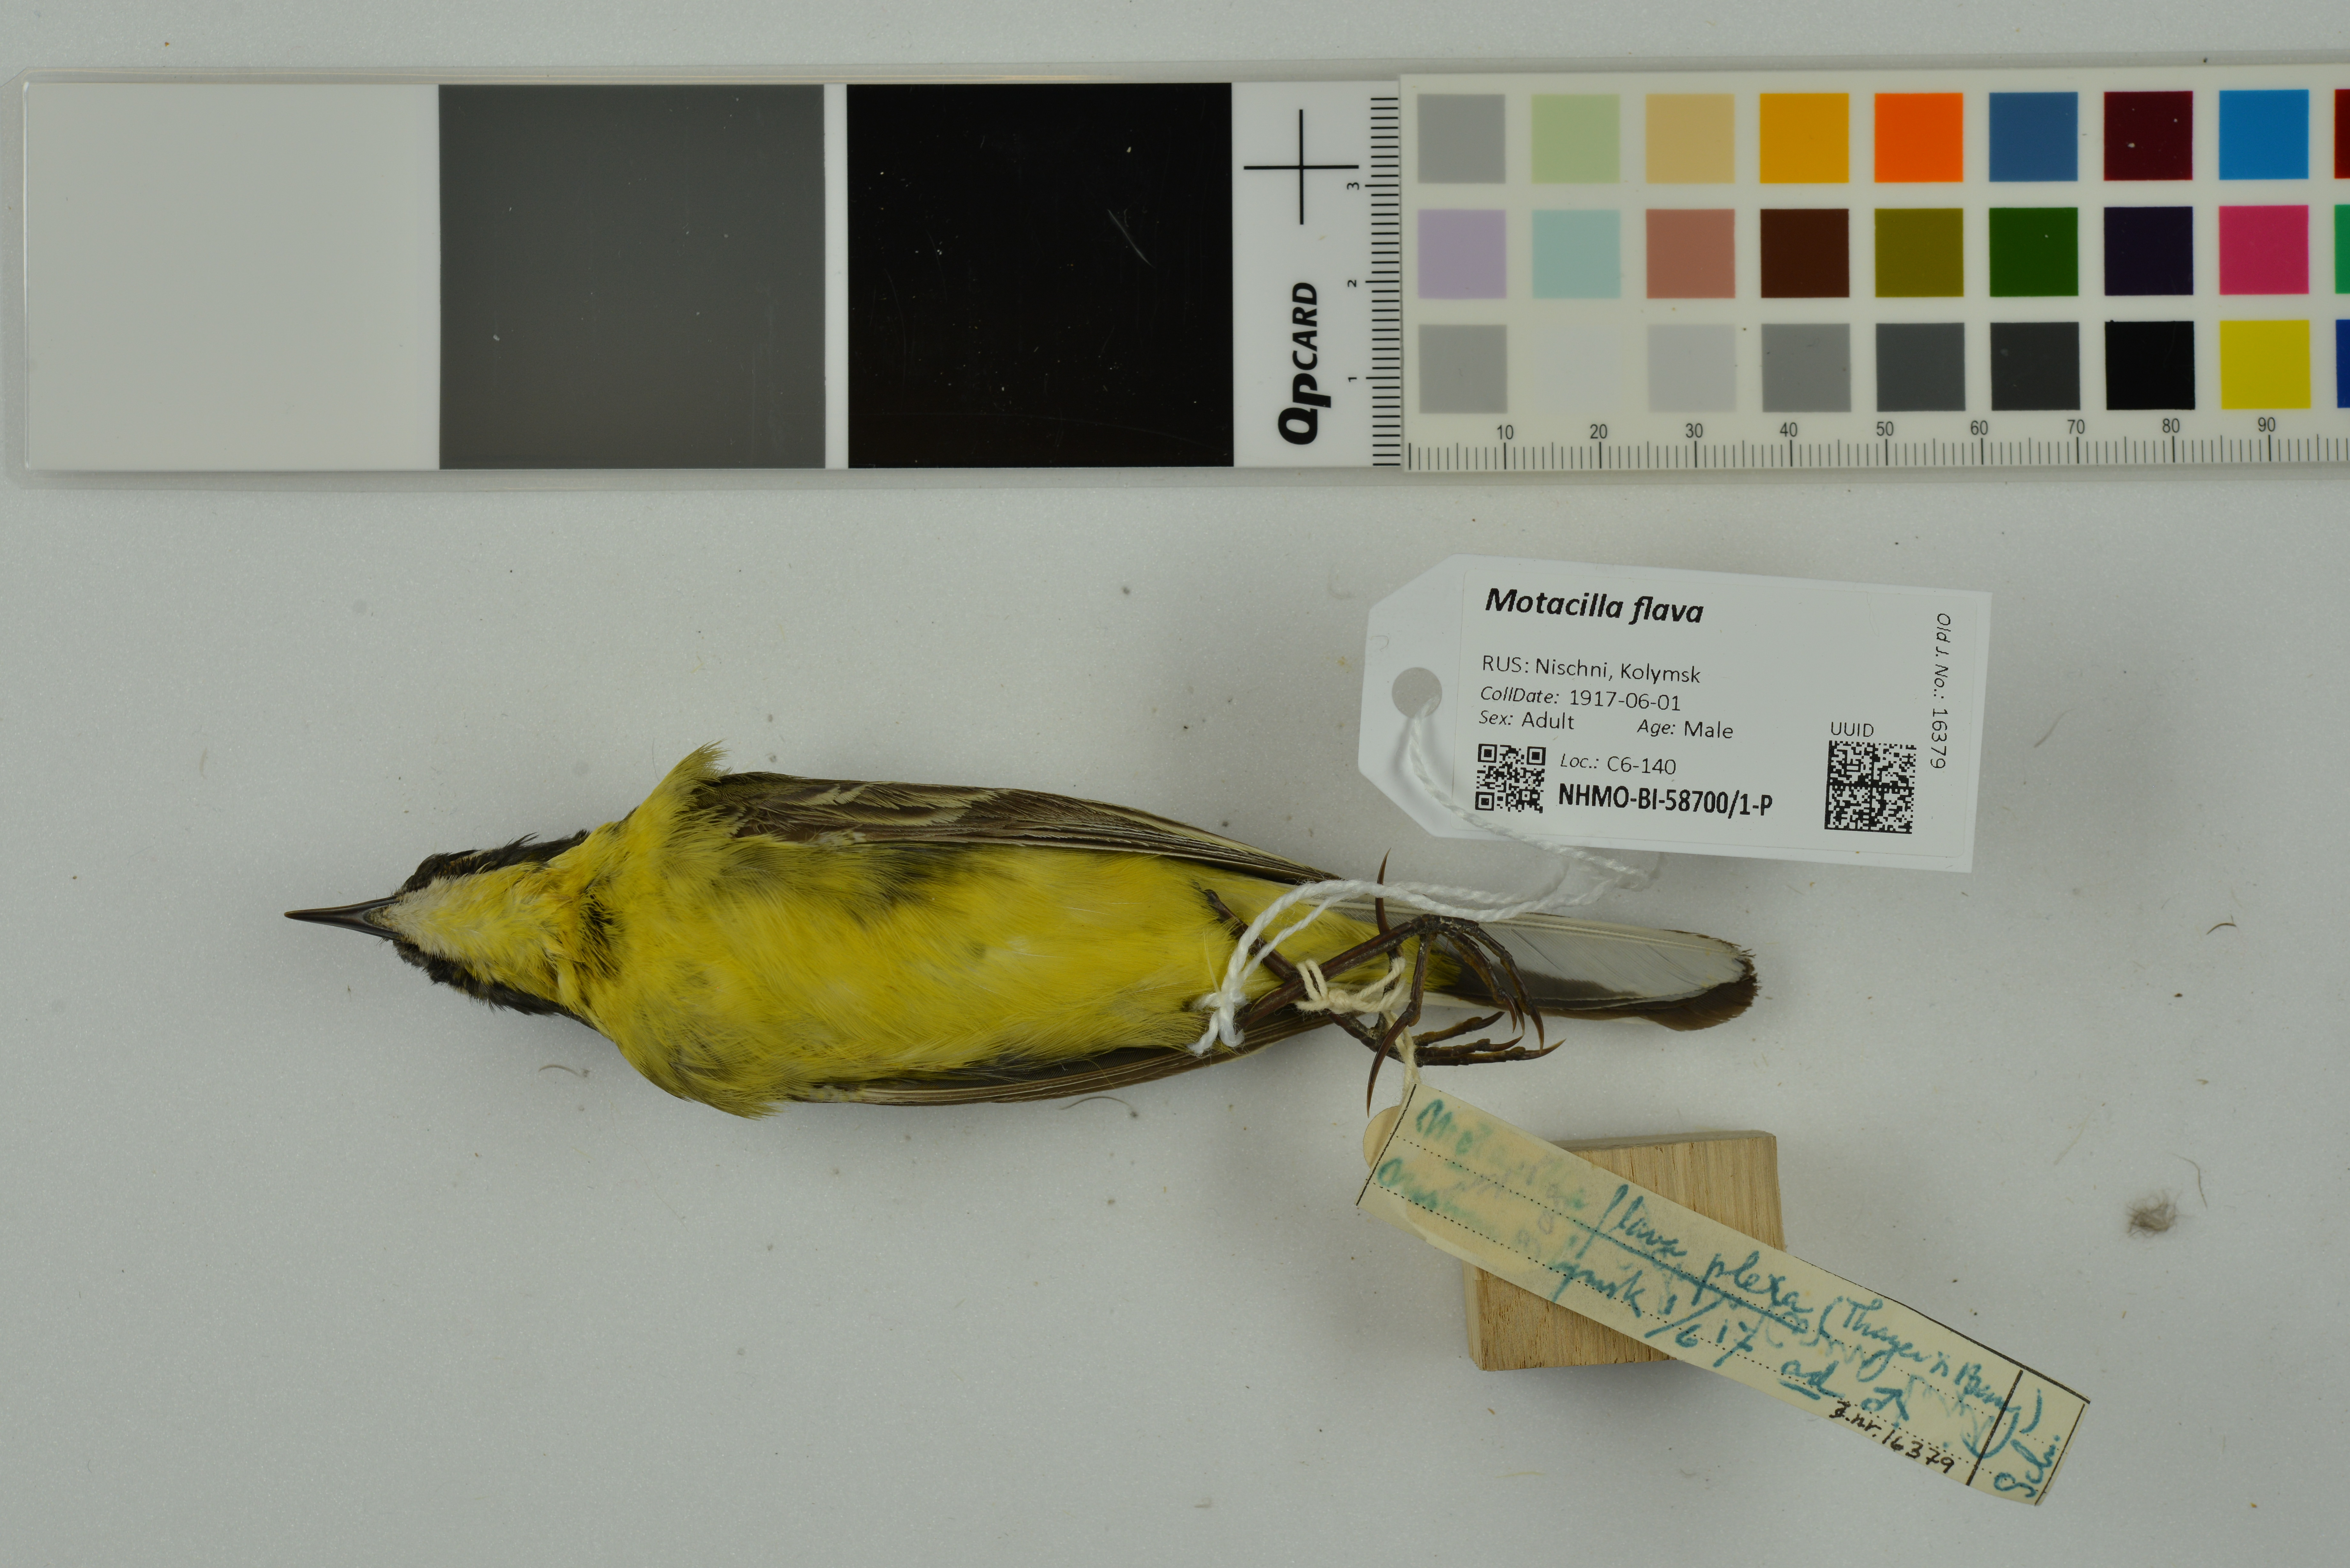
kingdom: Animalia
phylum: Chordata
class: Aves
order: Passeriformes
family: Motacillidae
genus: Motacilla
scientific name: Motacilla flava
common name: Western yellow wagtail
